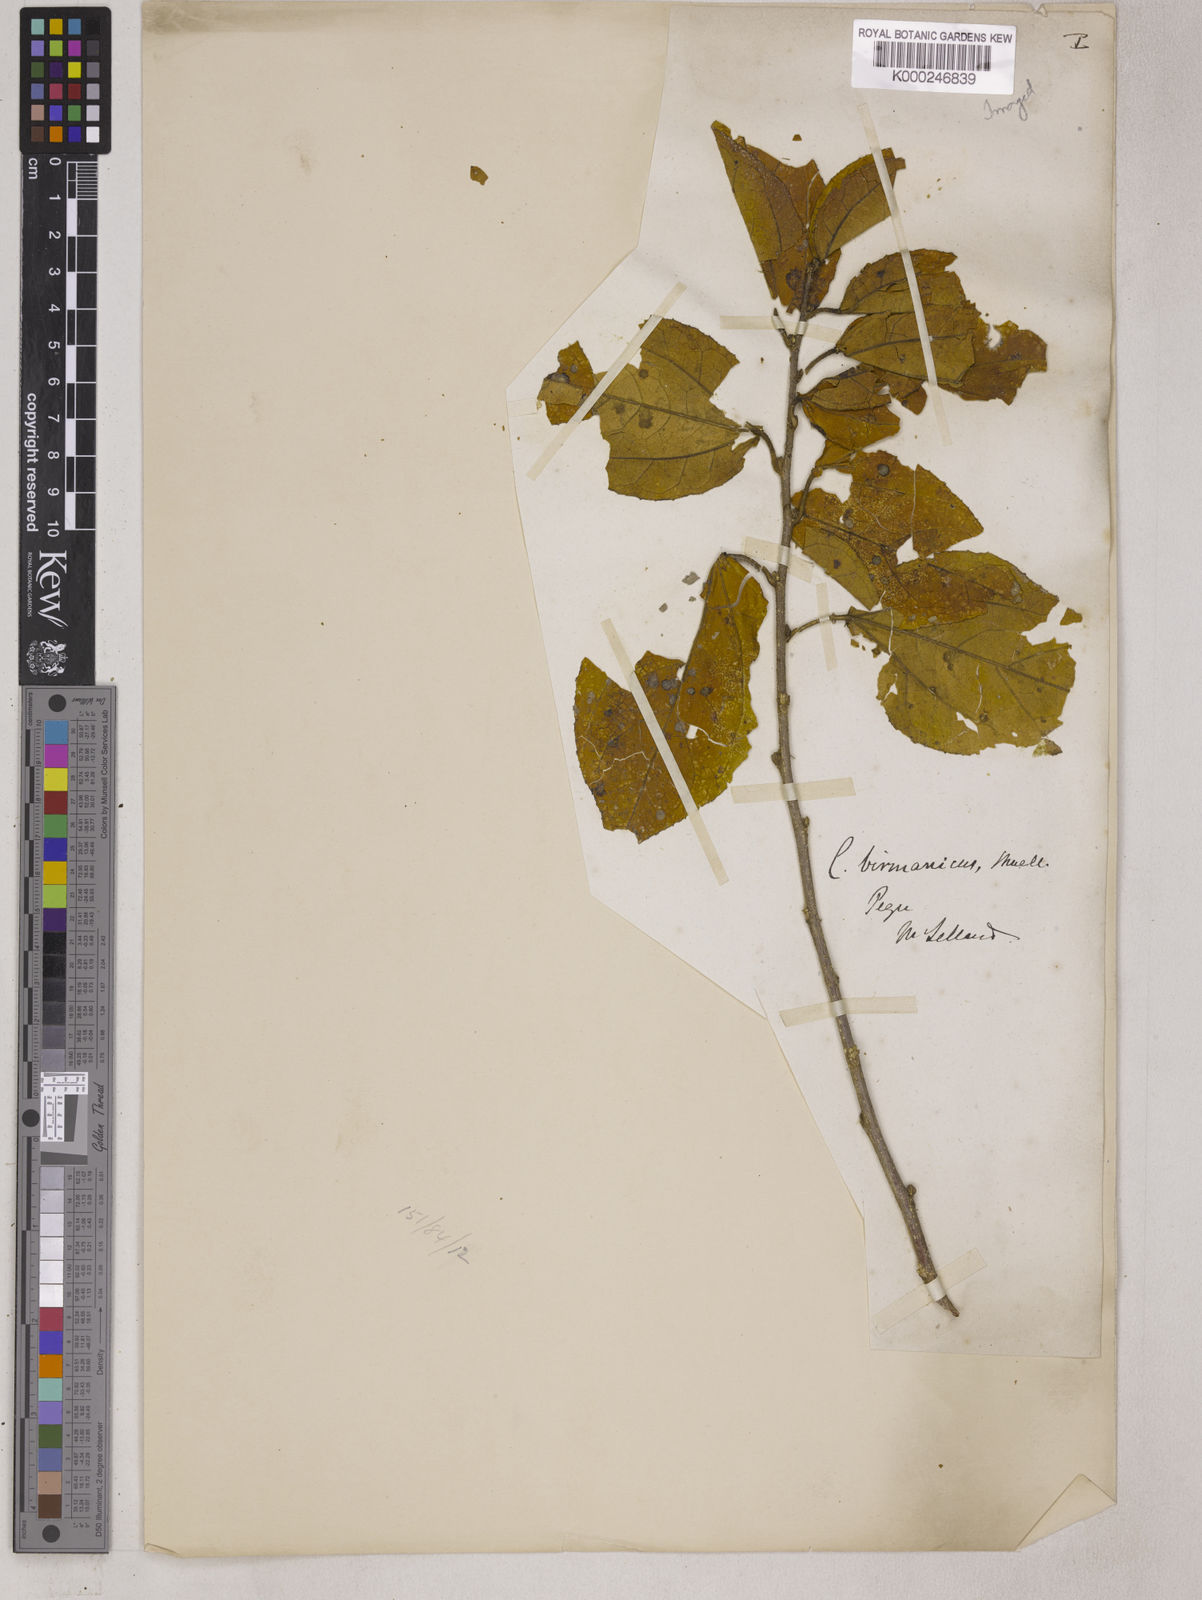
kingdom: Plantae
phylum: Tracheophyta
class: Magnoliopsida
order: Malpighiales
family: Euphorbiaceae
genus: Croton
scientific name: Croton
